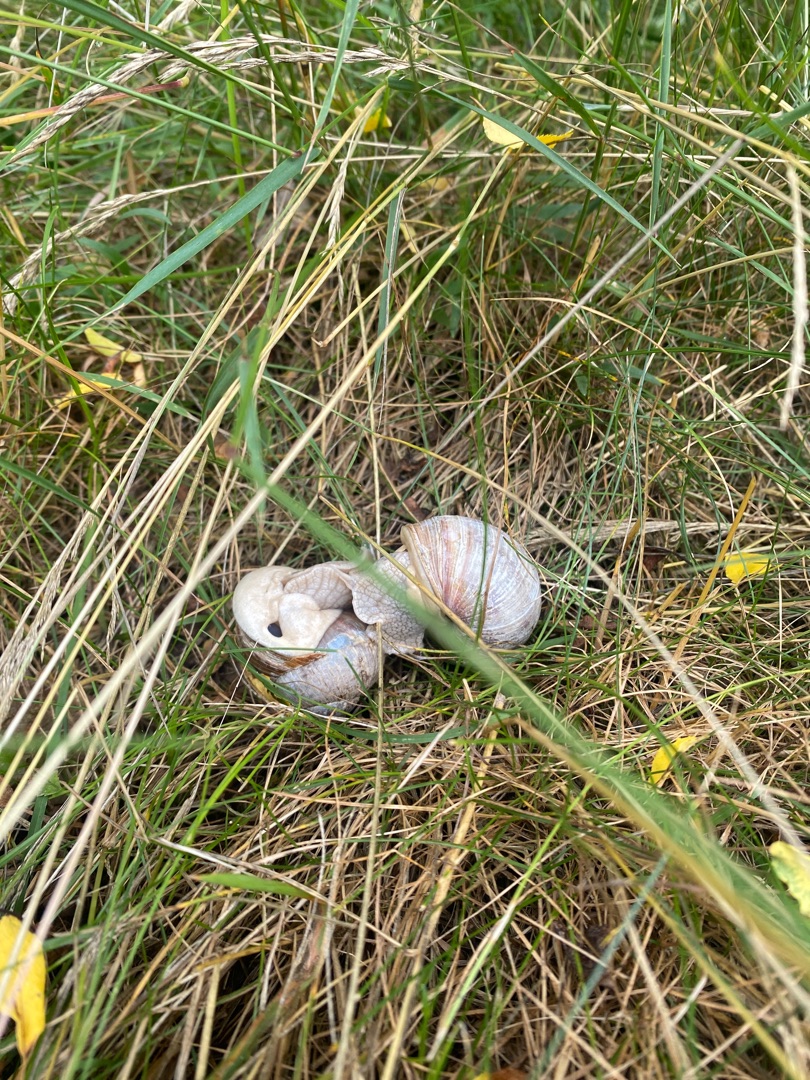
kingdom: Animalia
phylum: Mollusca
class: Gastropoda
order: Stylommatophora
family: Helicidae
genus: Helix
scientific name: Helix pomatia
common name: Vinbjergsnegl
